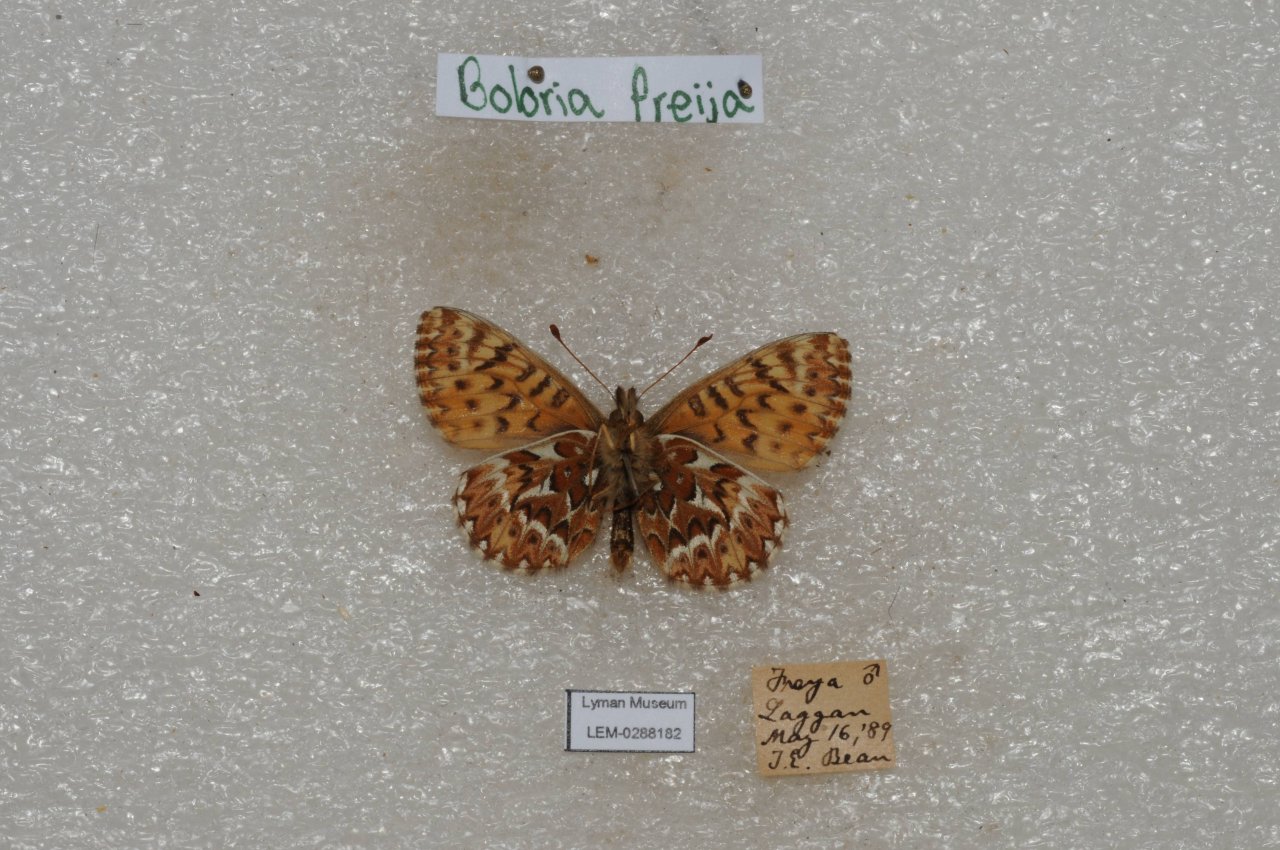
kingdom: Animalia
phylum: Arthropoda
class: Insecta
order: Lepidoptera
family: Nymphalidae
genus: Boloria
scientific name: Boloria freija
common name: Freija Fritillary
